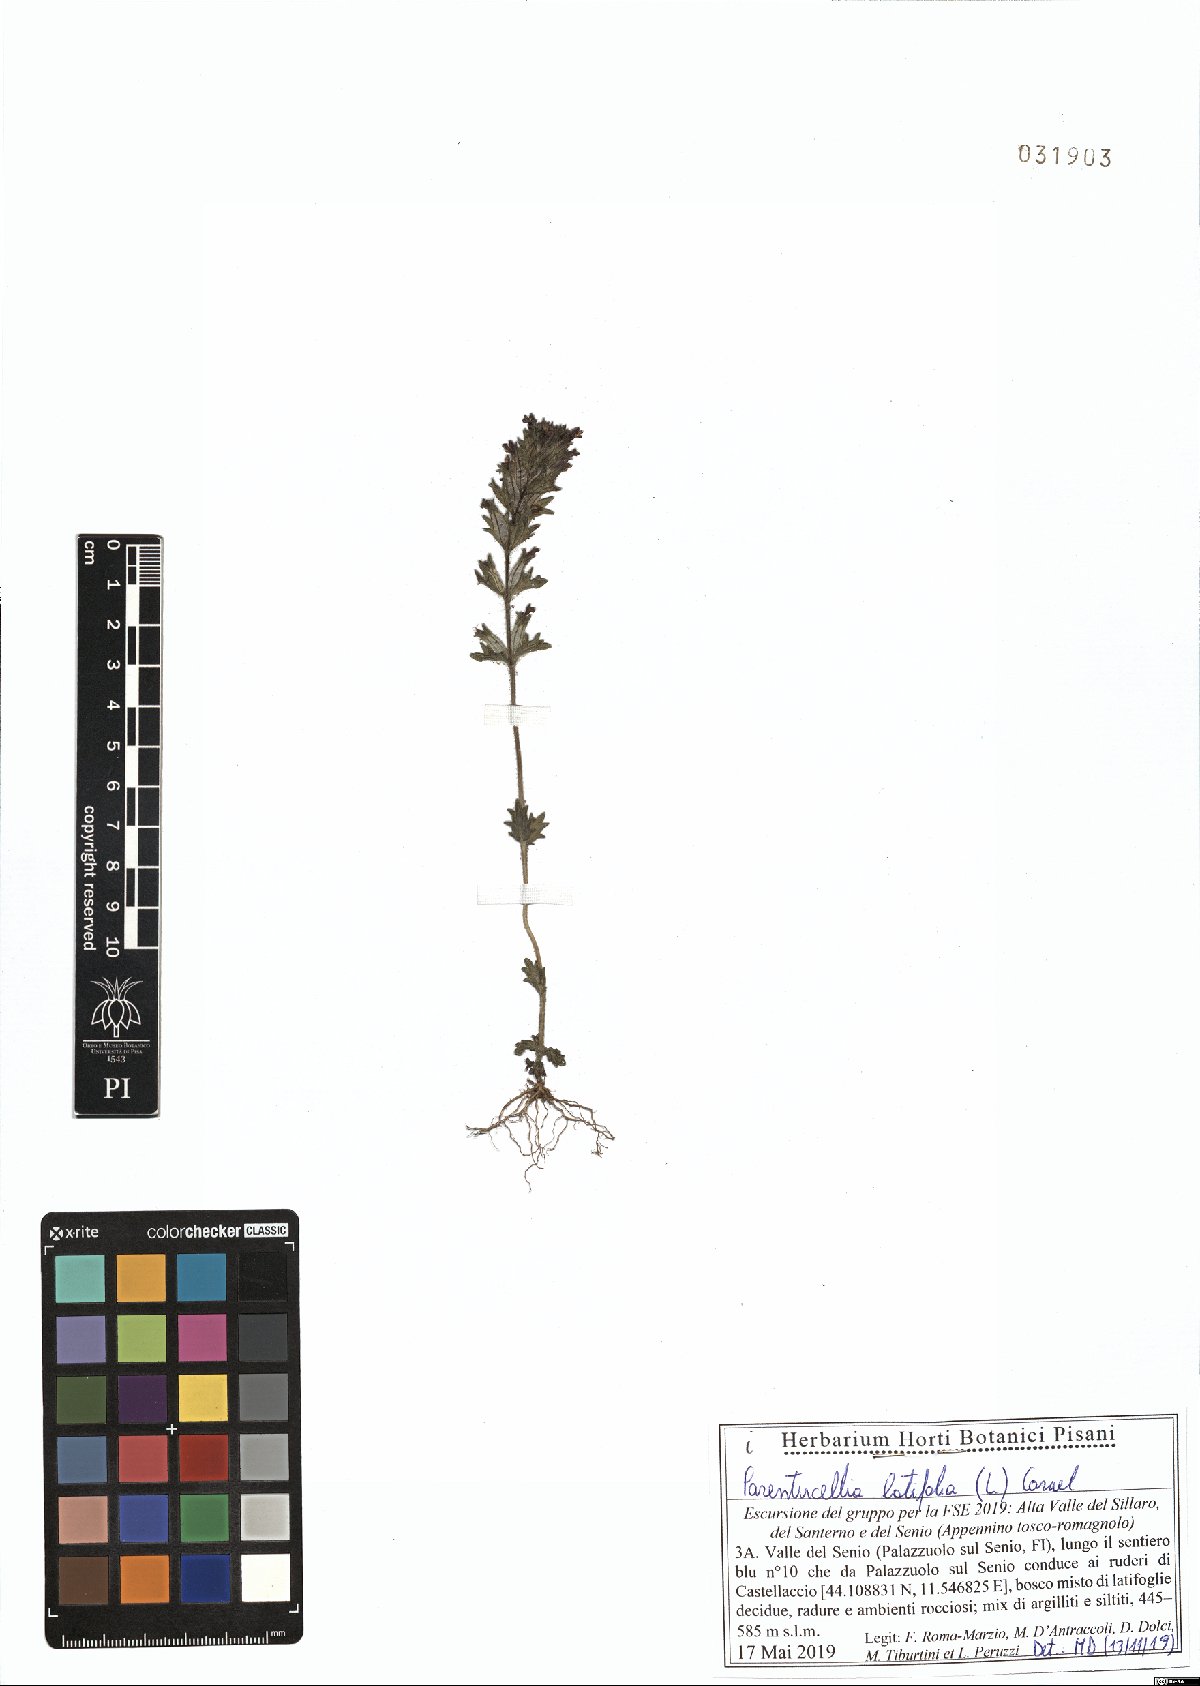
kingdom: Plantae
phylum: Tracheophyta
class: Magnoliopsida
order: Lamiales
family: Orobanchaceae
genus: Parentucellia
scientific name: Parentucellia latifolia
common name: Broadleaf glandweed
